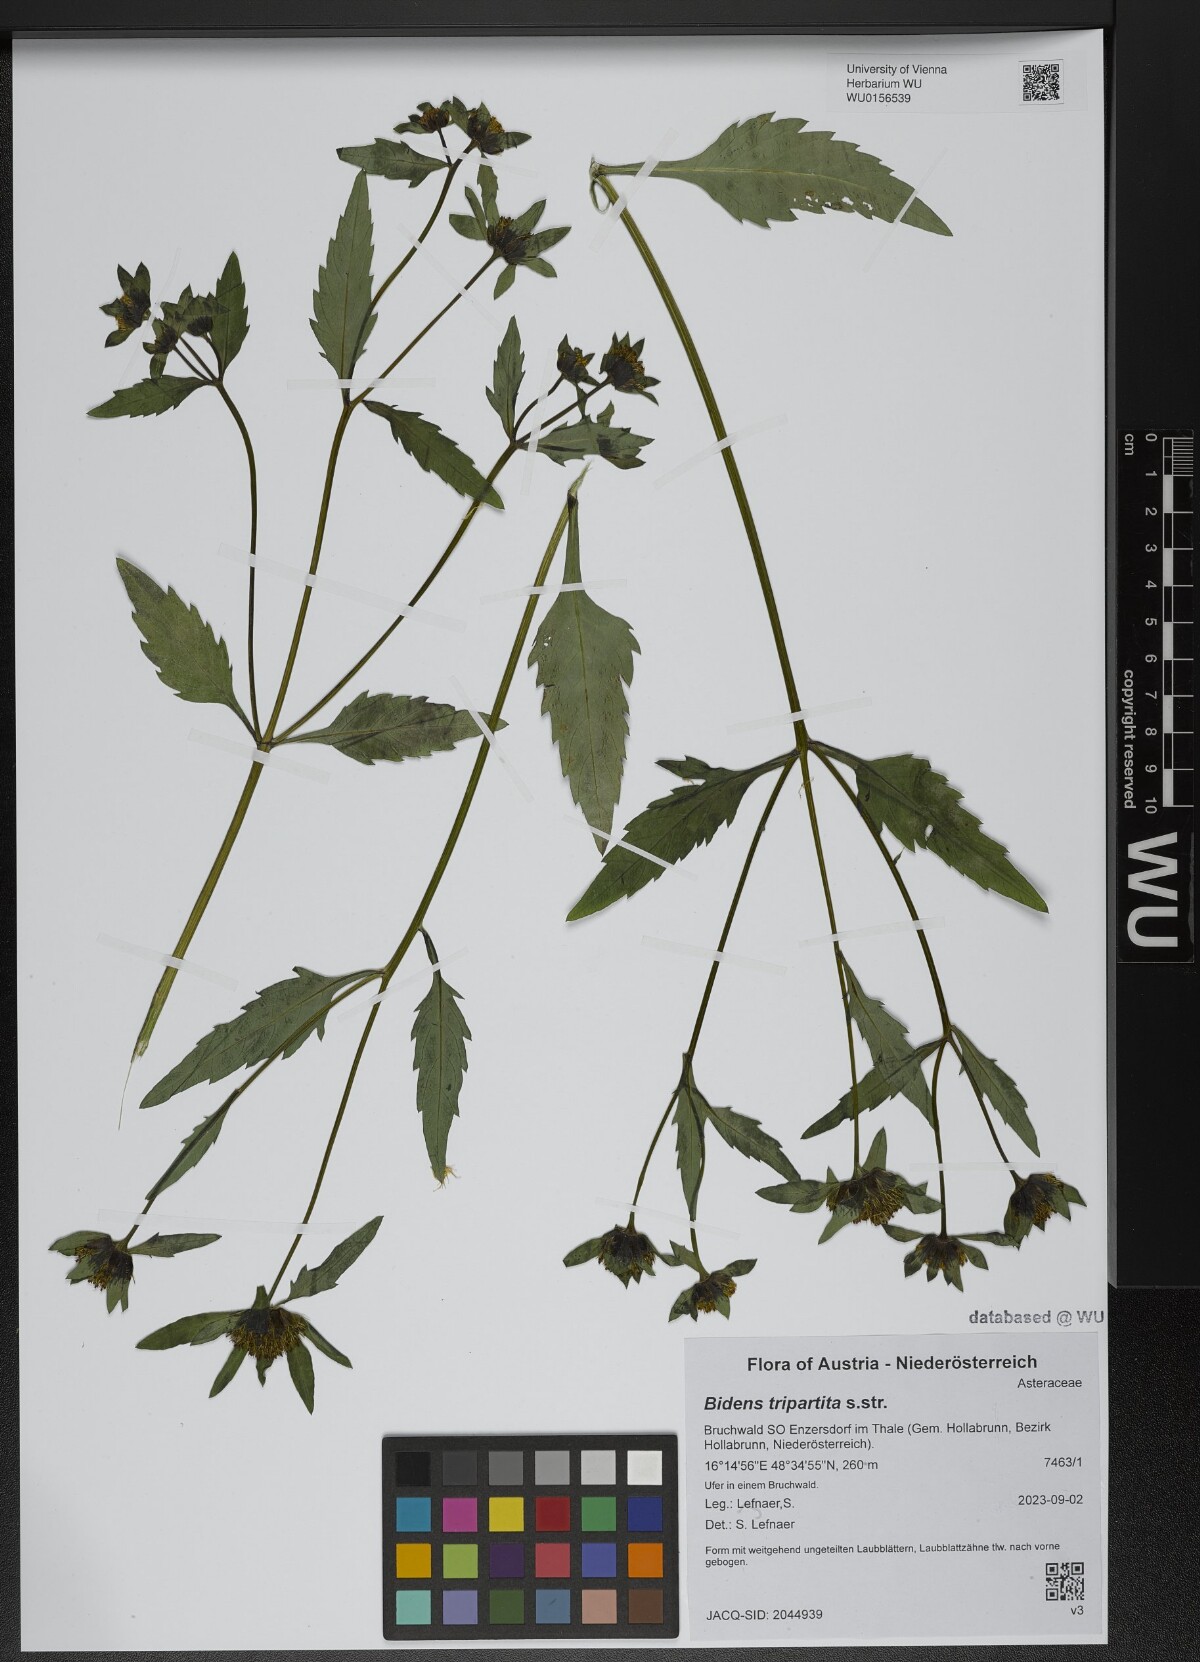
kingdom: Plantae
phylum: Tracheophyta
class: Magnoliopsida
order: Asterales
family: Asteraceae
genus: Bidens
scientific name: Bidens tripartita
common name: Trifid bur-marigold
